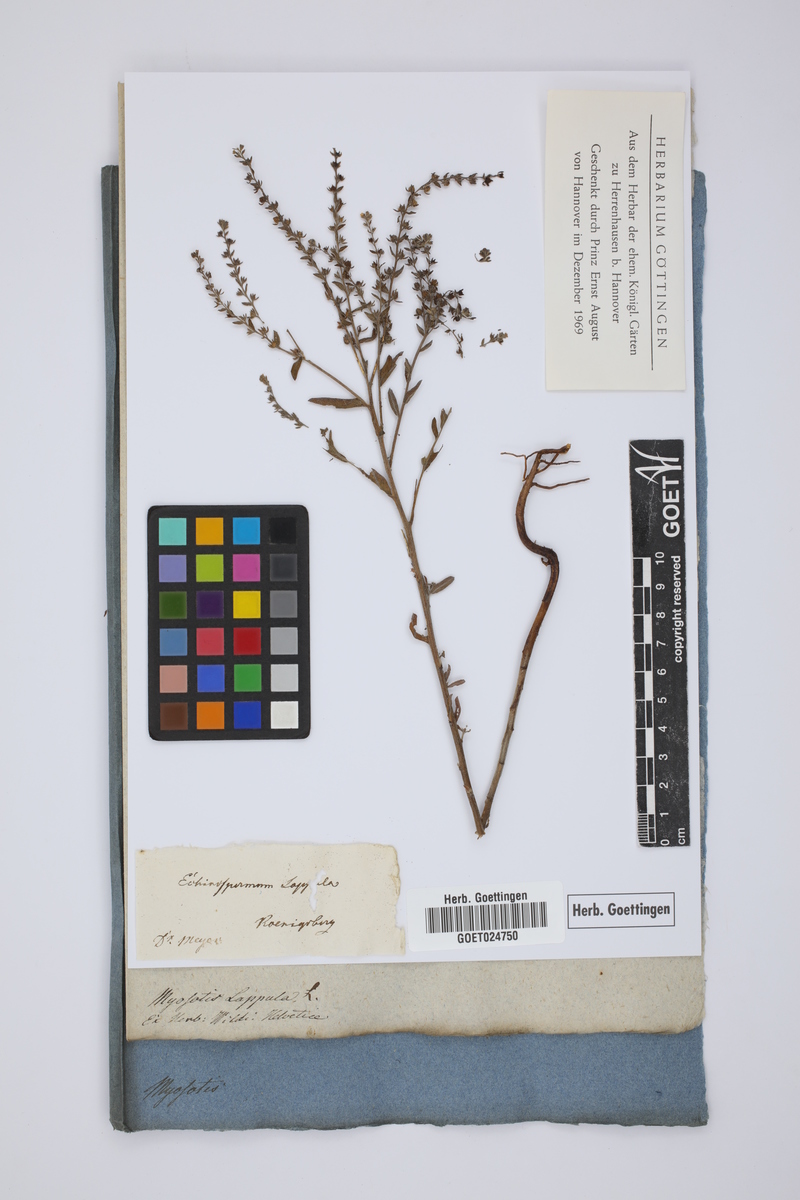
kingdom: Plantae
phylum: Tracheophyta
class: Magnoliopsida
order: Boraginales
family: Boraginaceae
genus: Lappula
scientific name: Lappula squarrosa
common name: European stickseed
